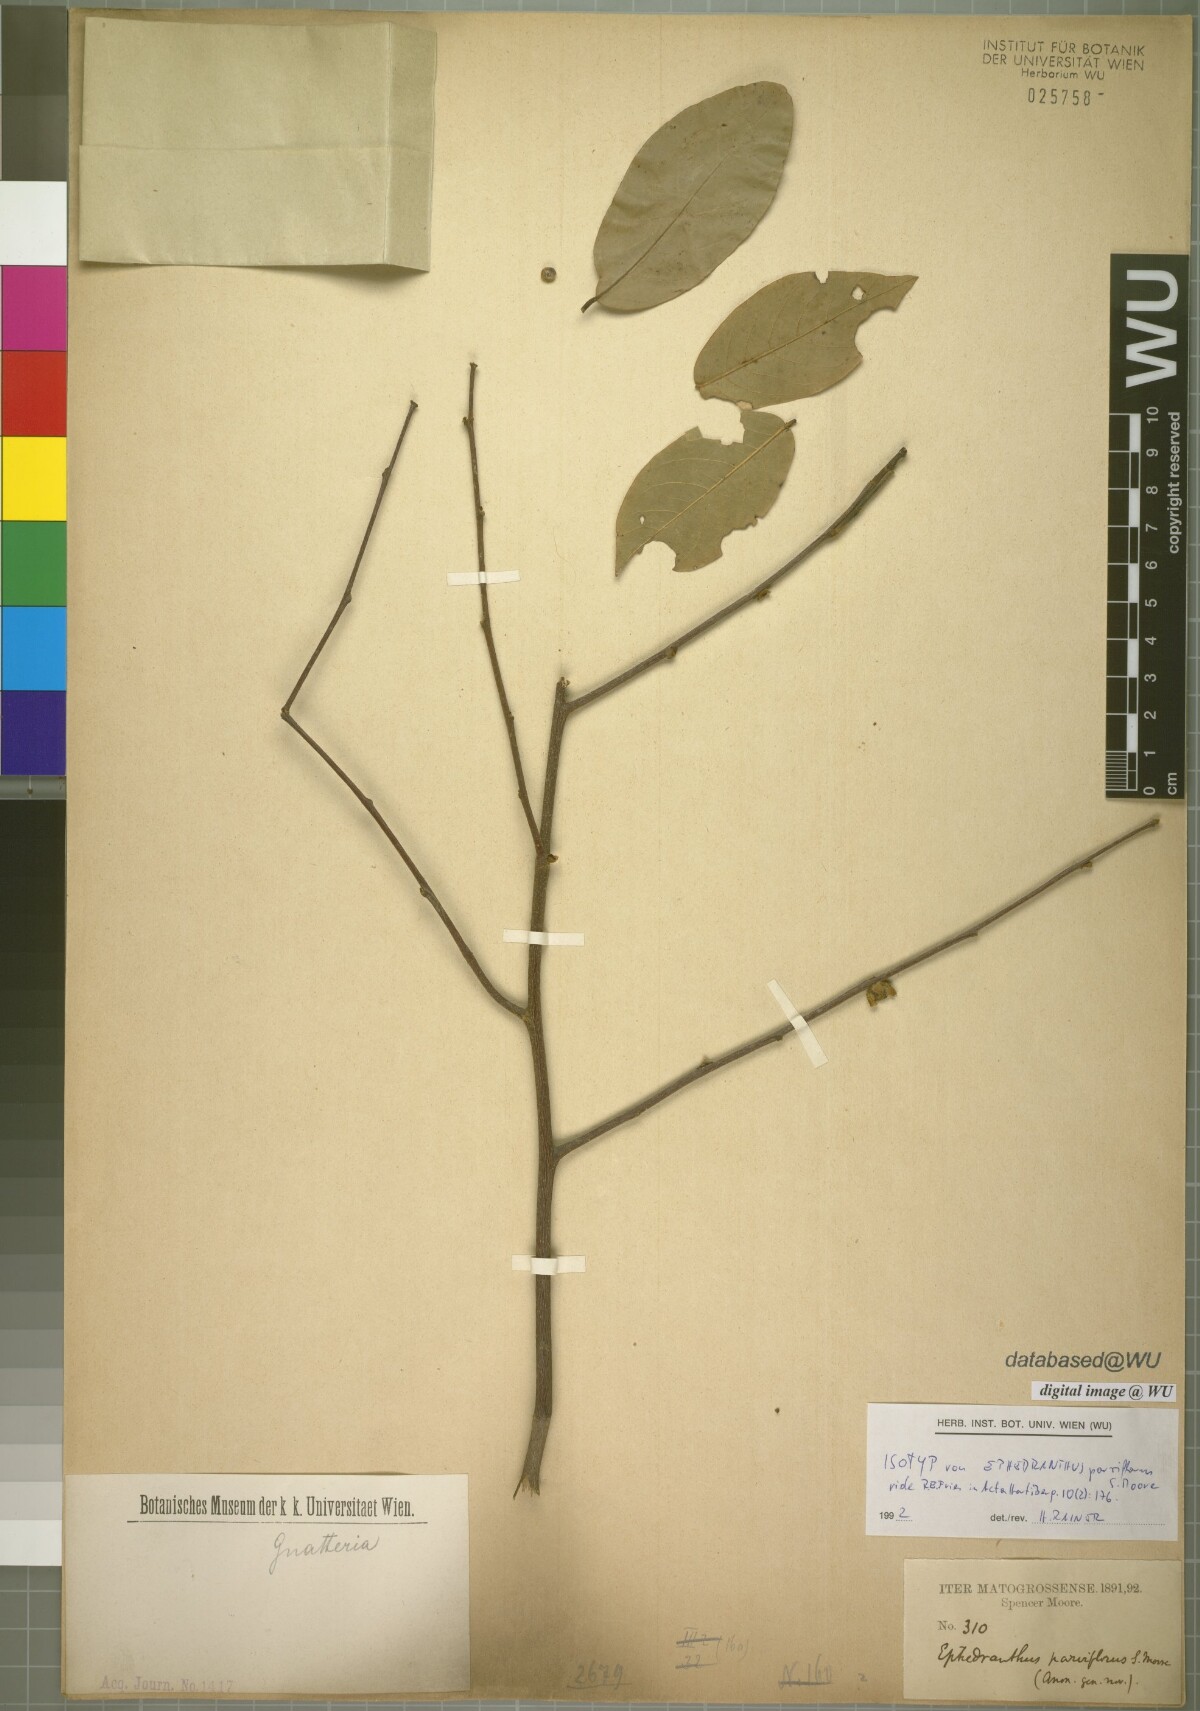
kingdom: Plantae
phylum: Tracheophyta
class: Magnoliopsida
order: Magnoliales
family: Annonaceae
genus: Ephedranthus
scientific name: Ephedranthus parviflorus
